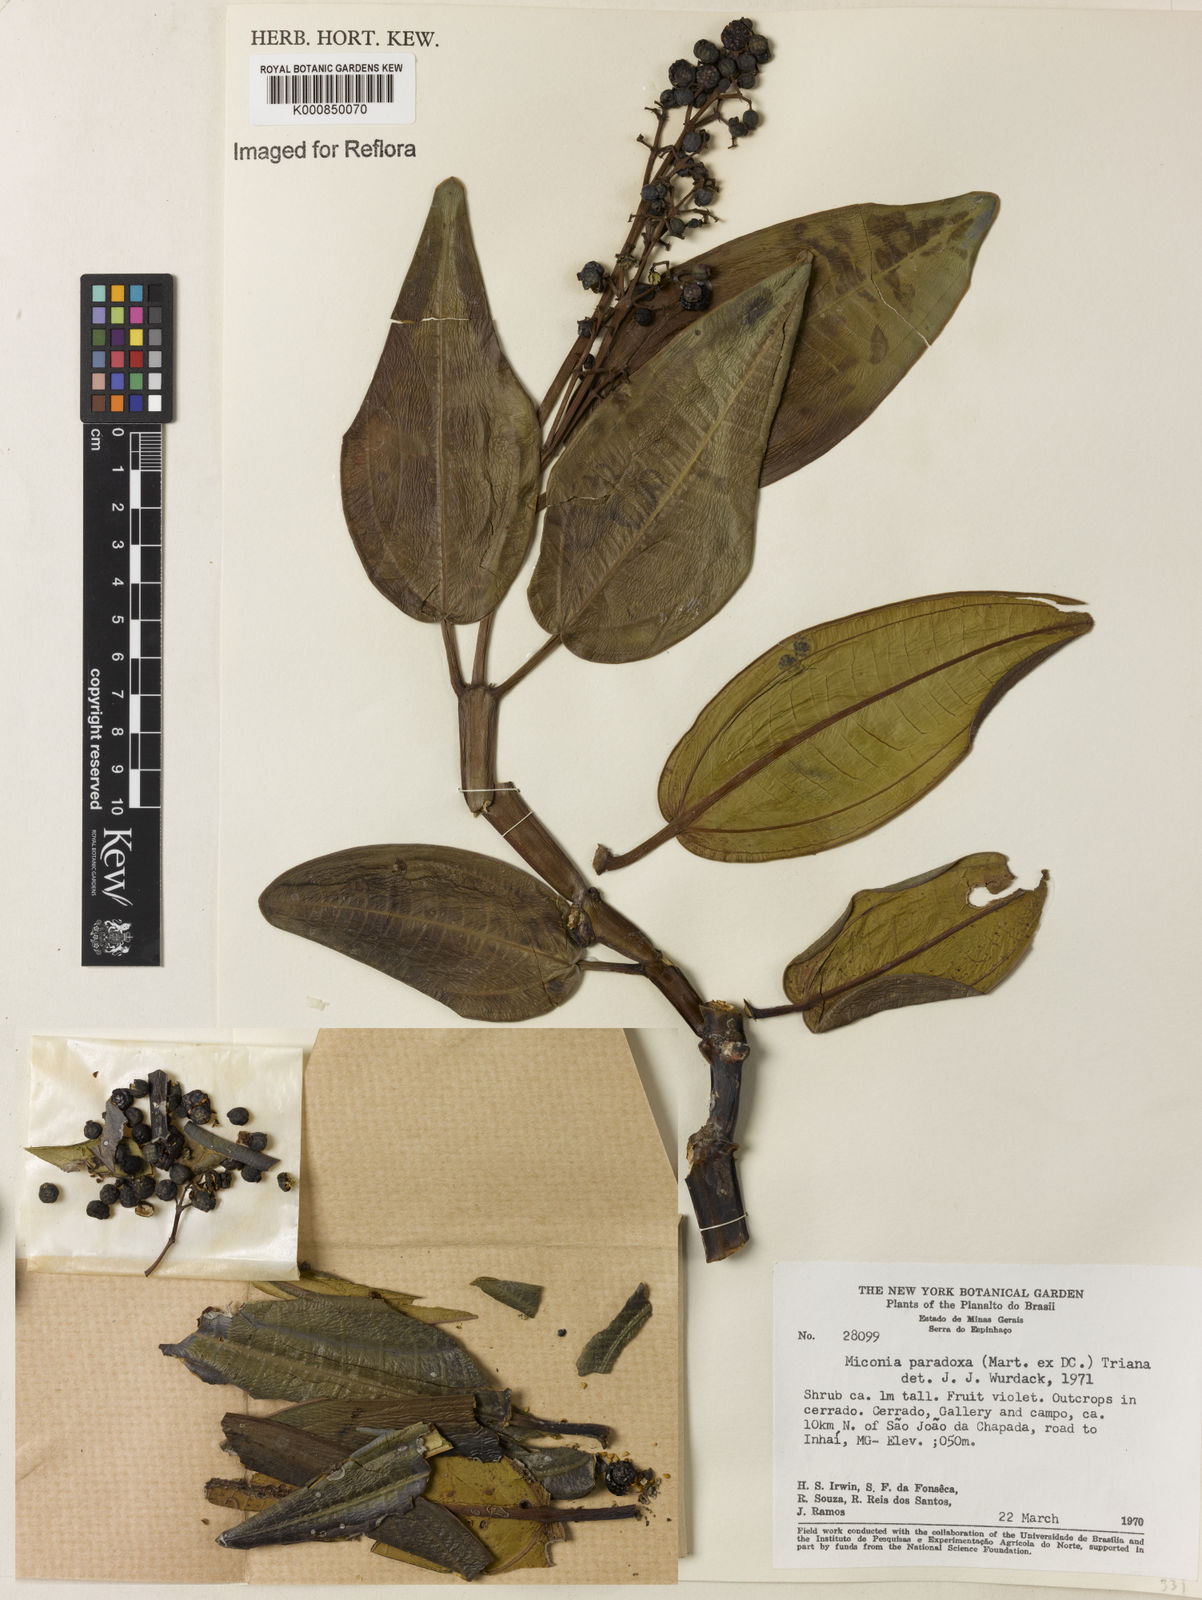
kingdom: Plantae
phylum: Tracheophyta
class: Magnoliopsida
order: Myrtales
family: Melastomataceae
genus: Miconia
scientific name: Miconia paradoxa
